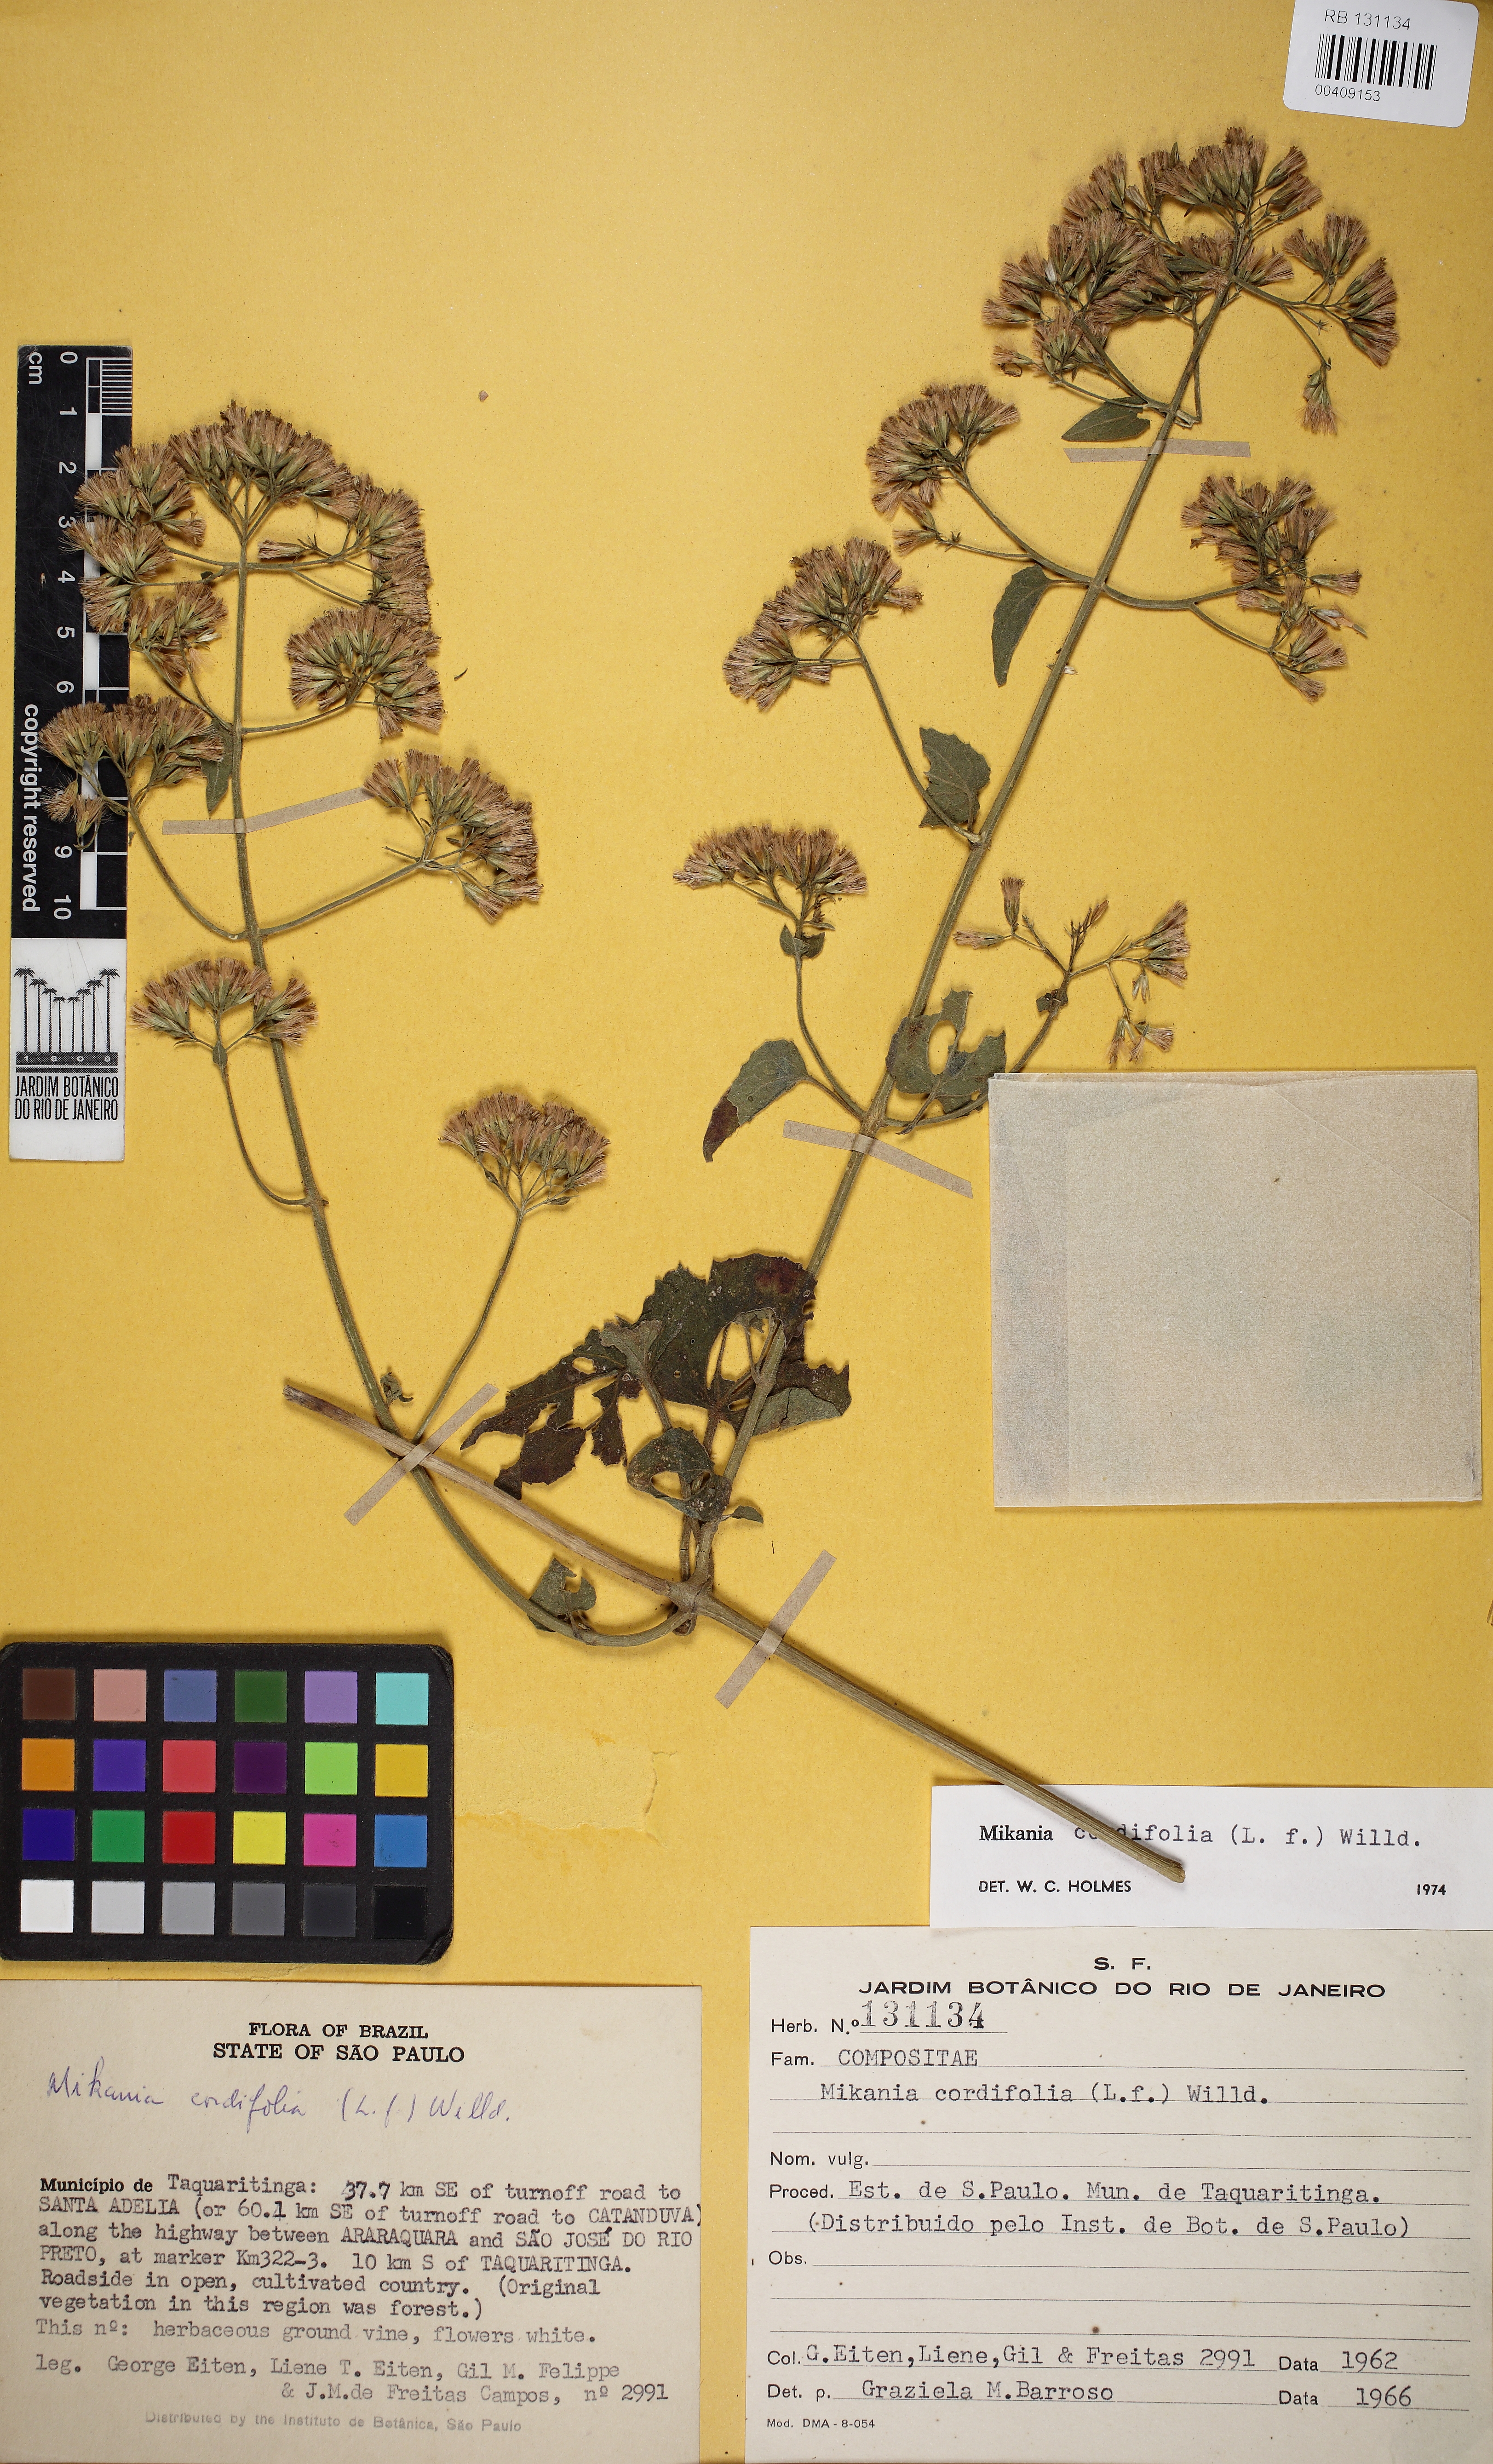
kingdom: Plantae
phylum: Tracheophyta
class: Magnoliopsida
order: Asterales
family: Asteraceae
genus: Mikania
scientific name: Mikania cordifolia
